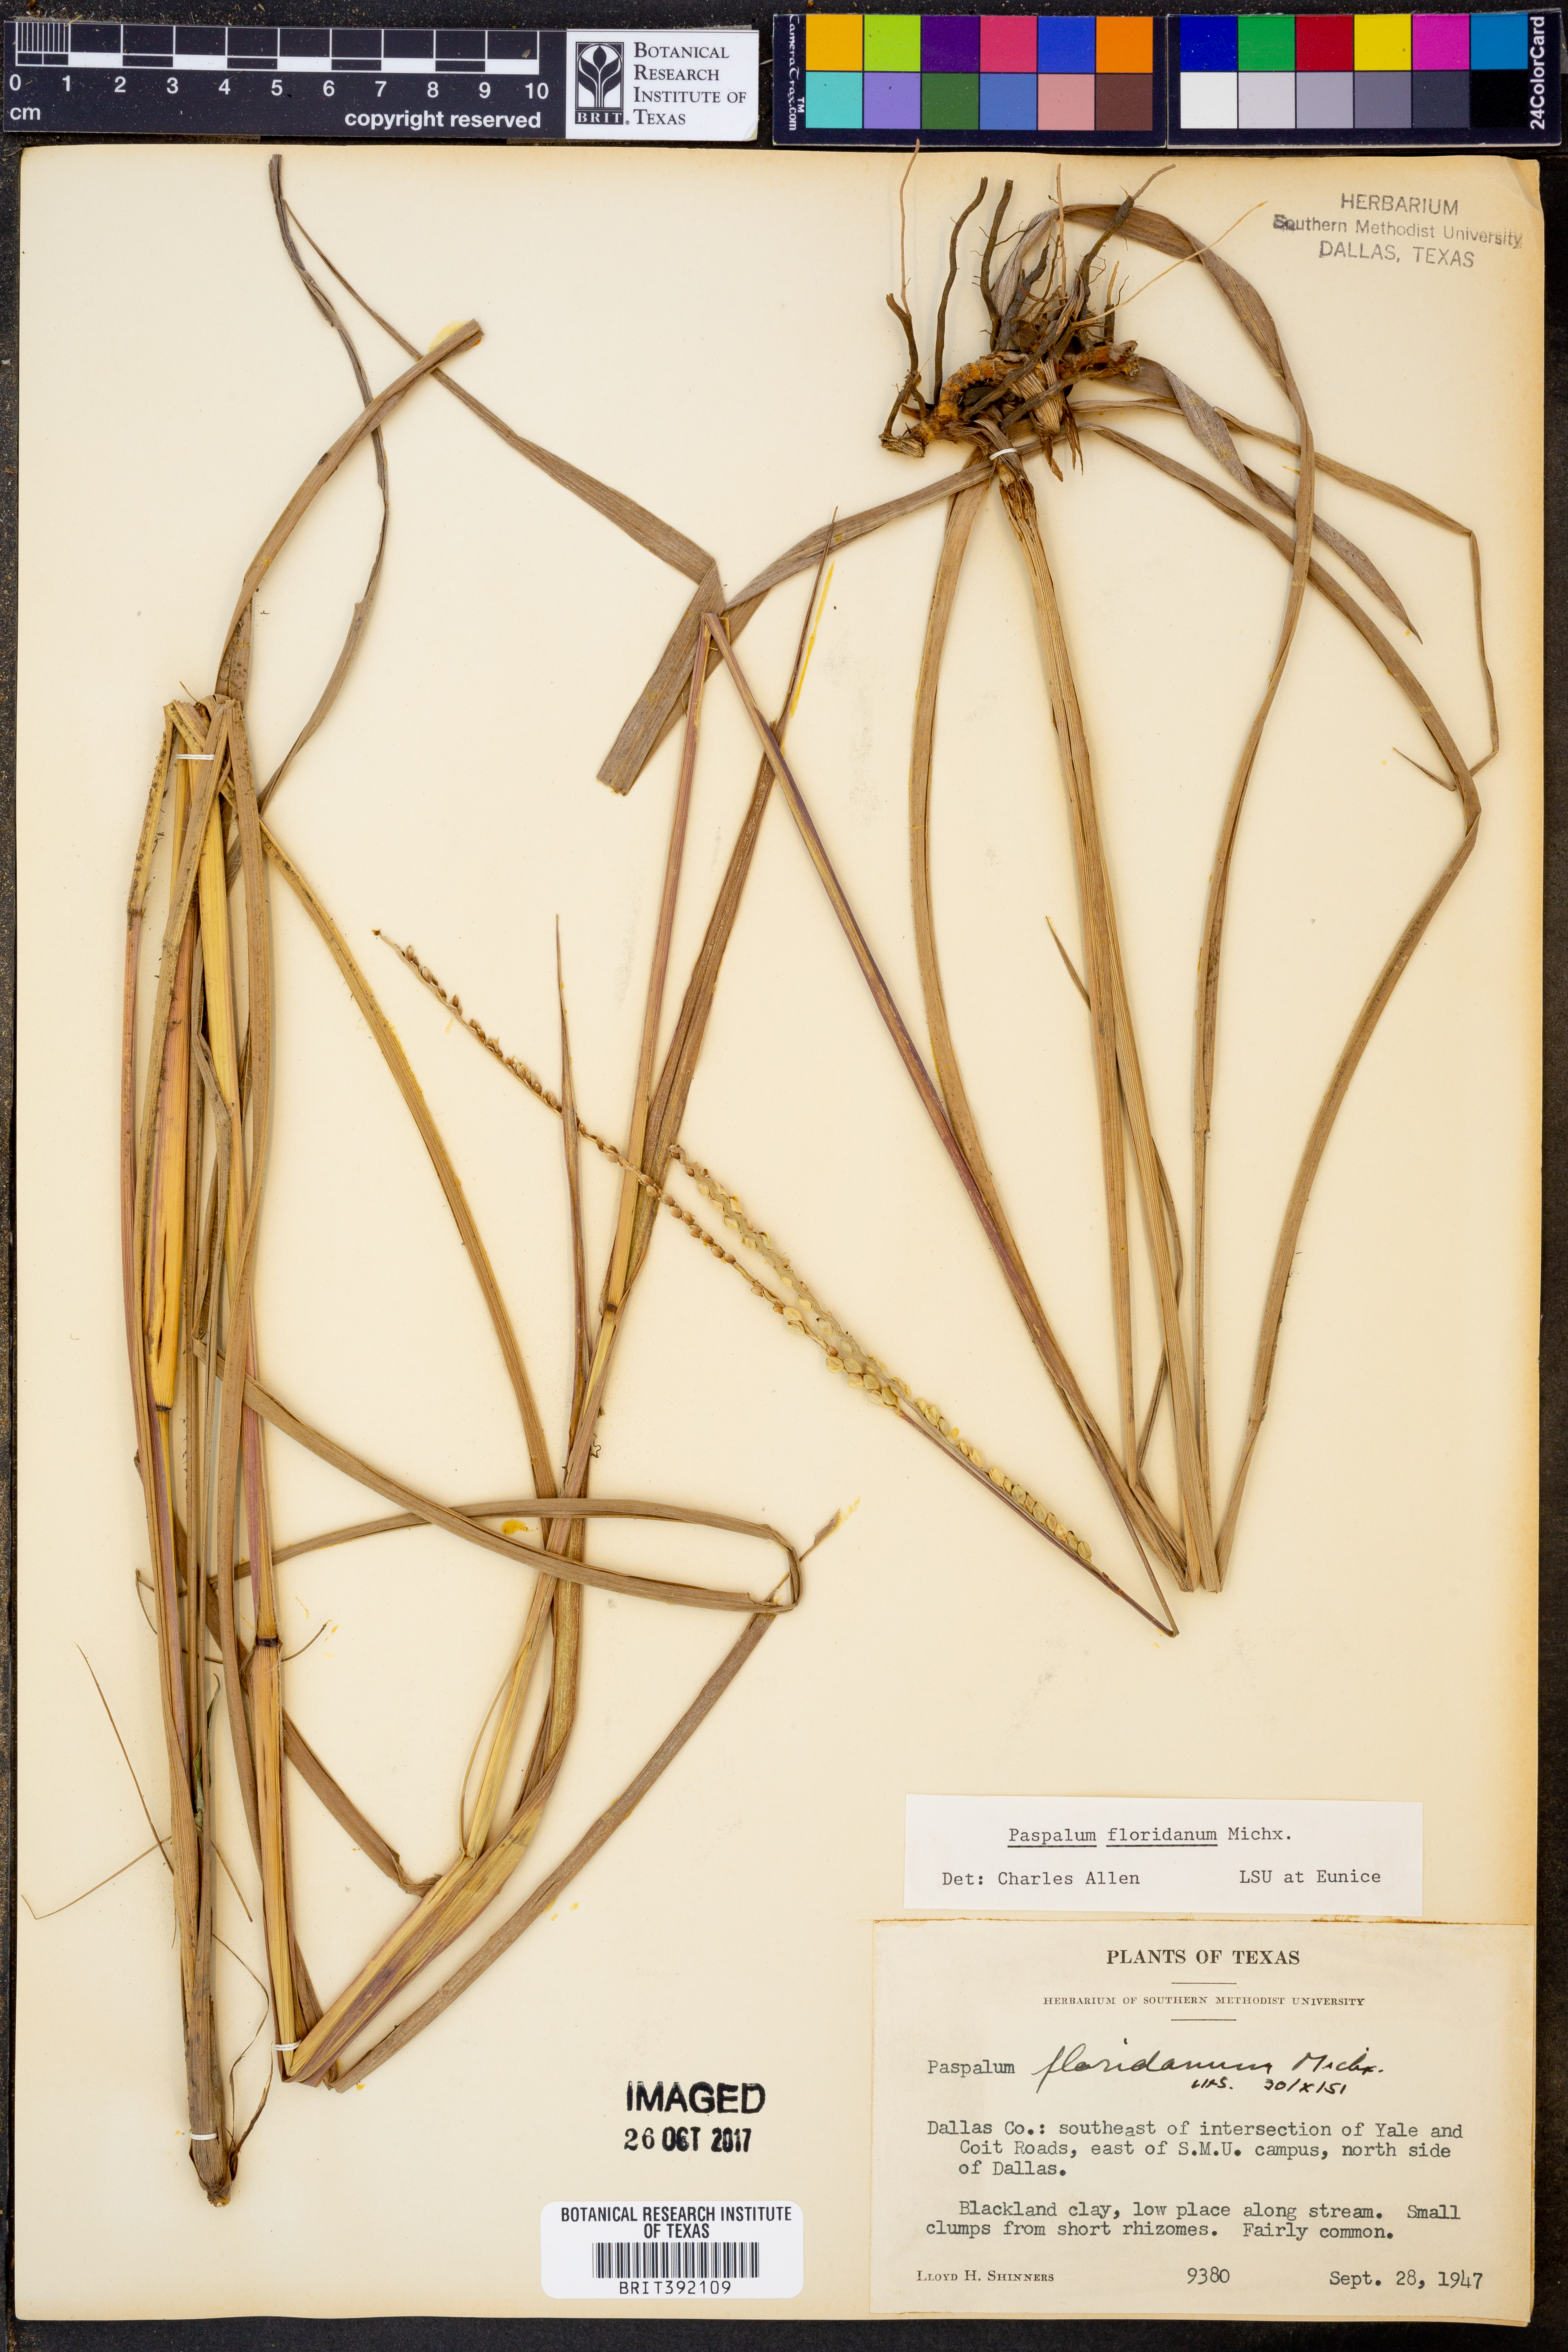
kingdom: Plantae
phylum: Tracheophyta
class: Liliopsida
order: Poales
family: Poaceae
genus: Paspalum
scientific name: Paspalum floridanum
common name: Florida paspalum
